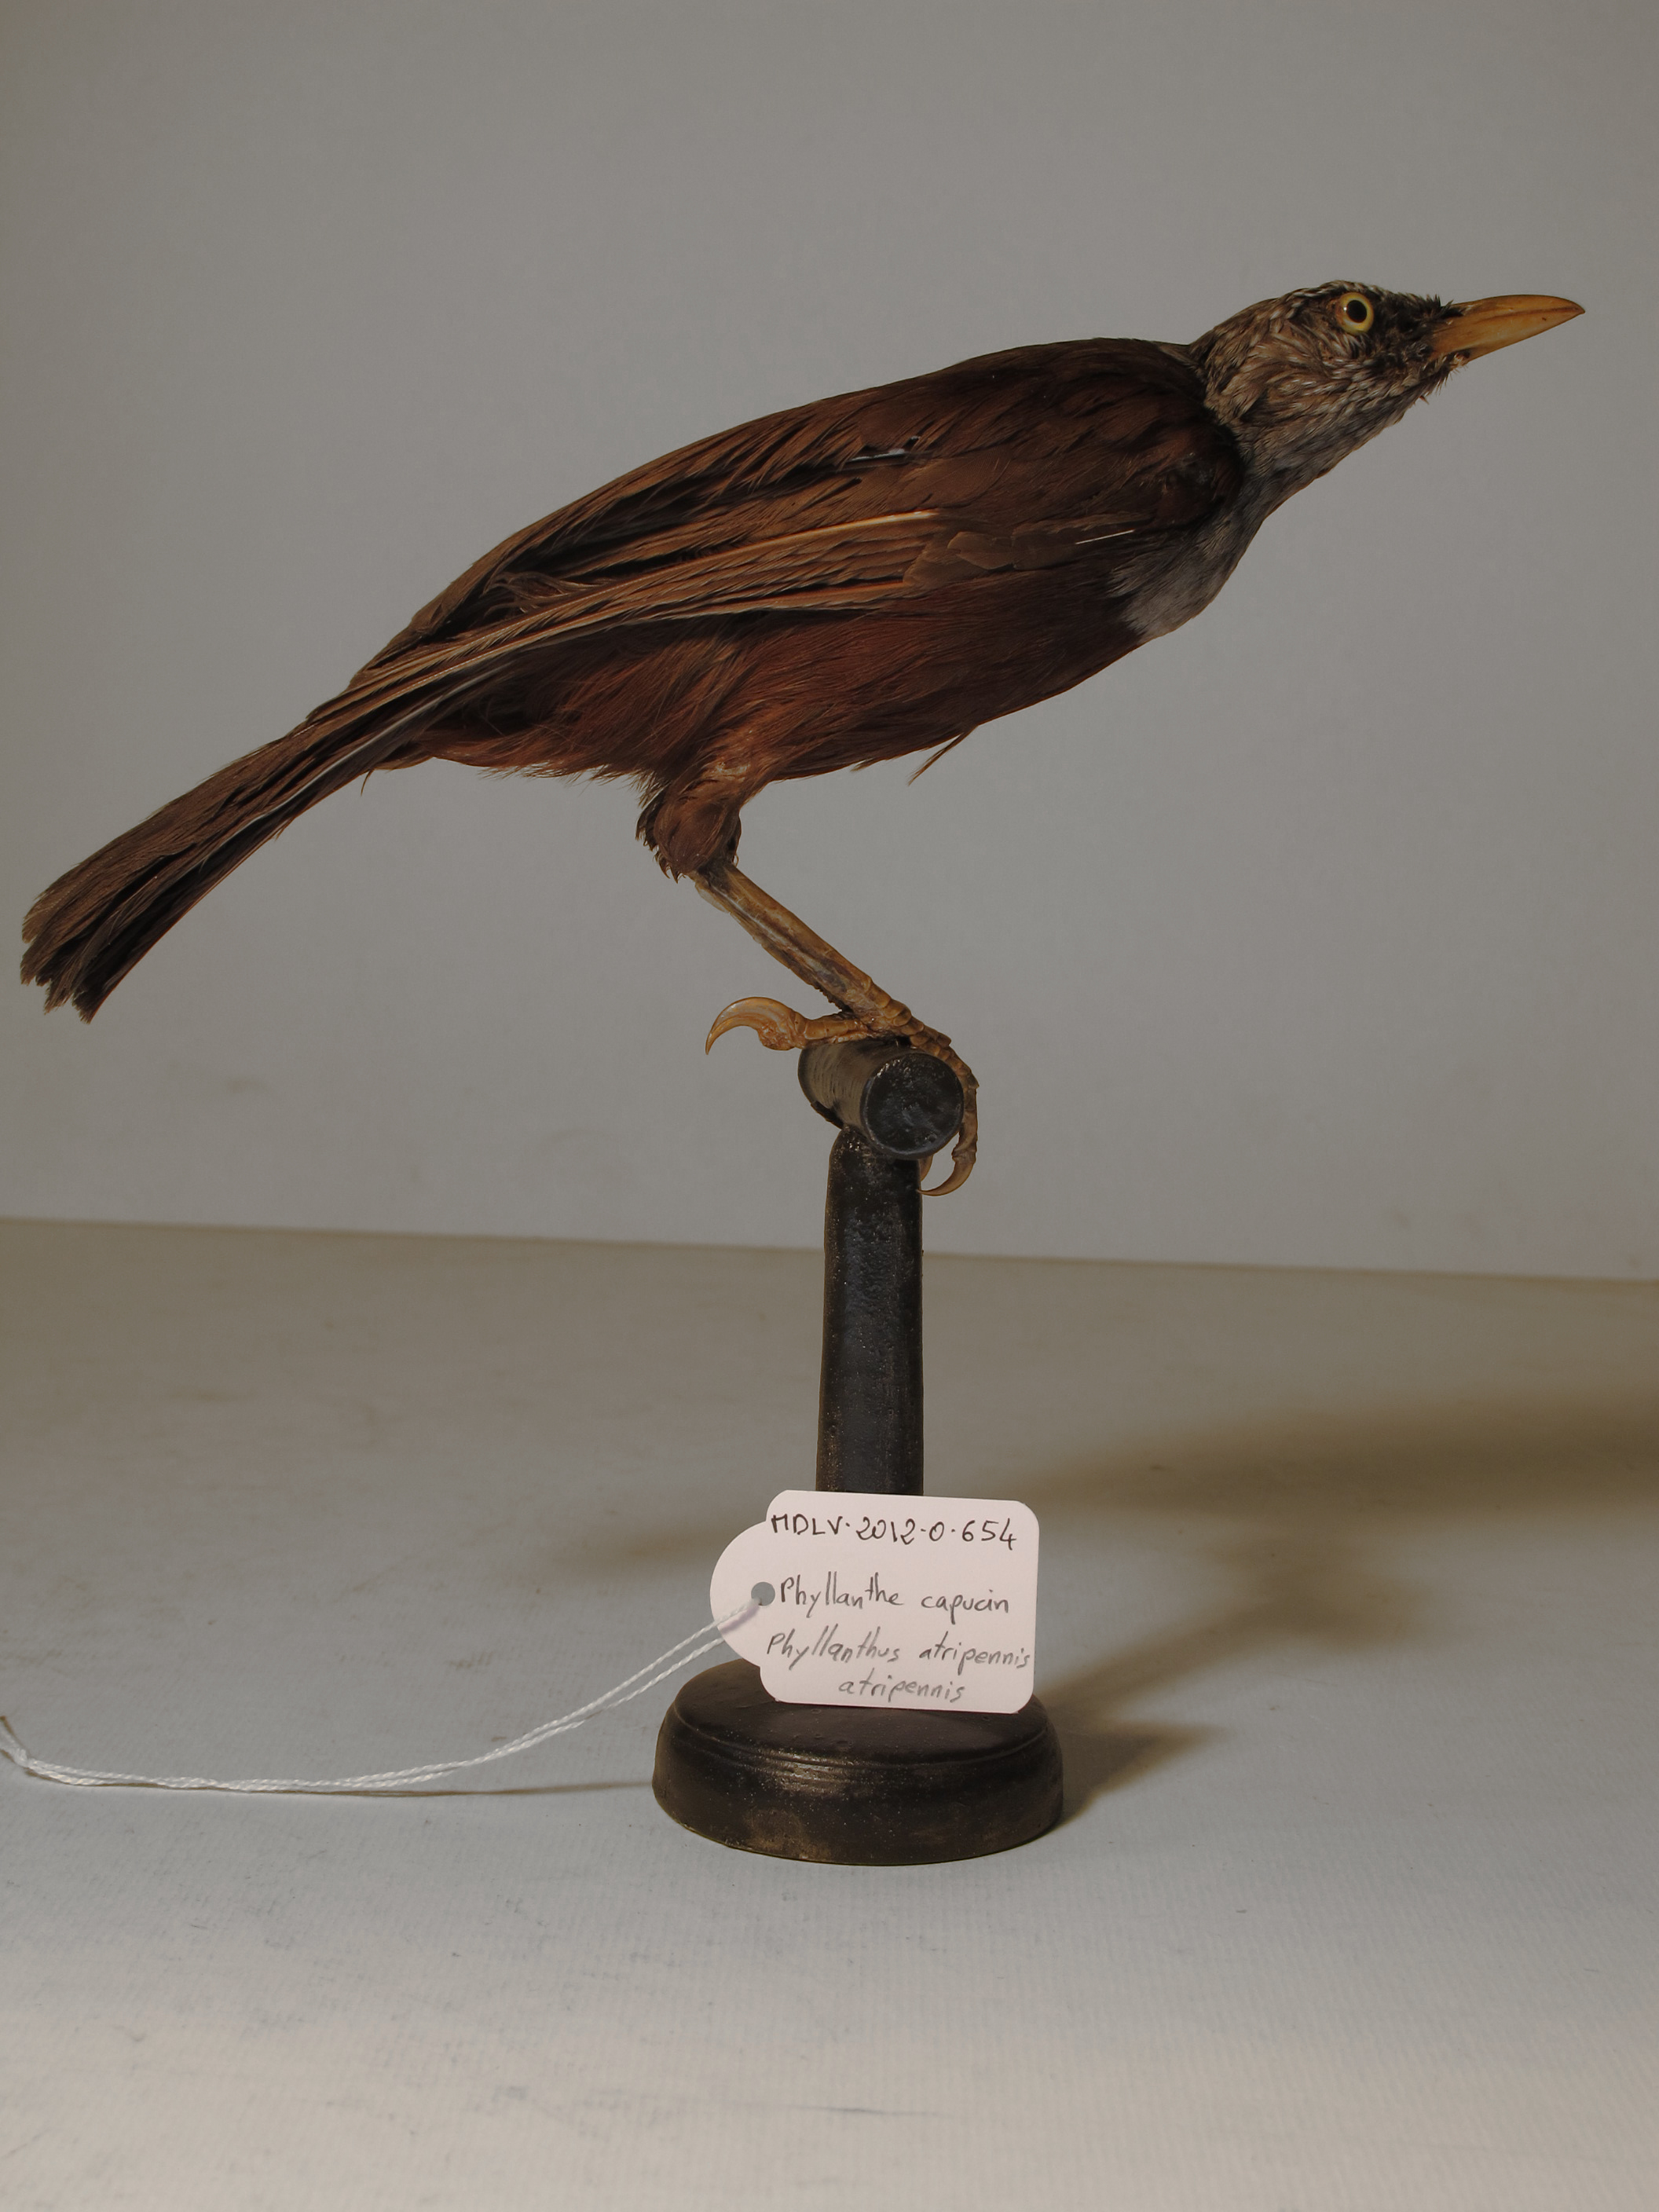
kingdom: Animalia
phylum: Chordata
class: Aves
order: Passeriformes
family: Leiothrichidae
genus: Phyllanthus
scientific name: Phyllanthus atripennis
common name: Capuchin Babbler
